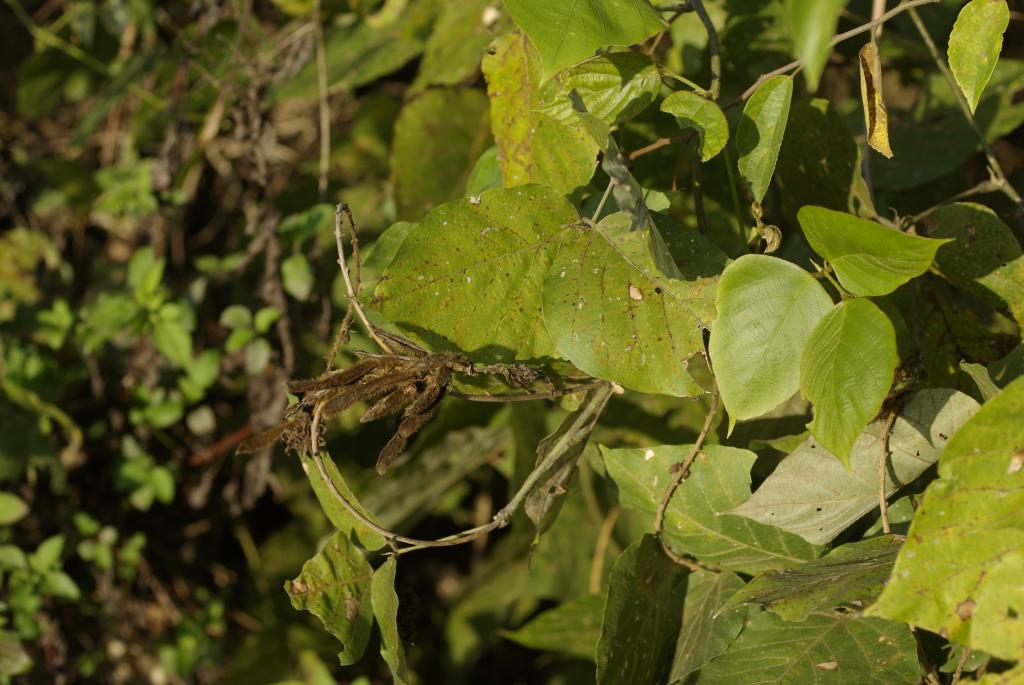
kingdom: Plantae
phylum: Tracheophyta
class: Magnoliopsida
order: Fabales
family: Fabaceae
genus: Pueraria
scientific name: Pueraria montana
